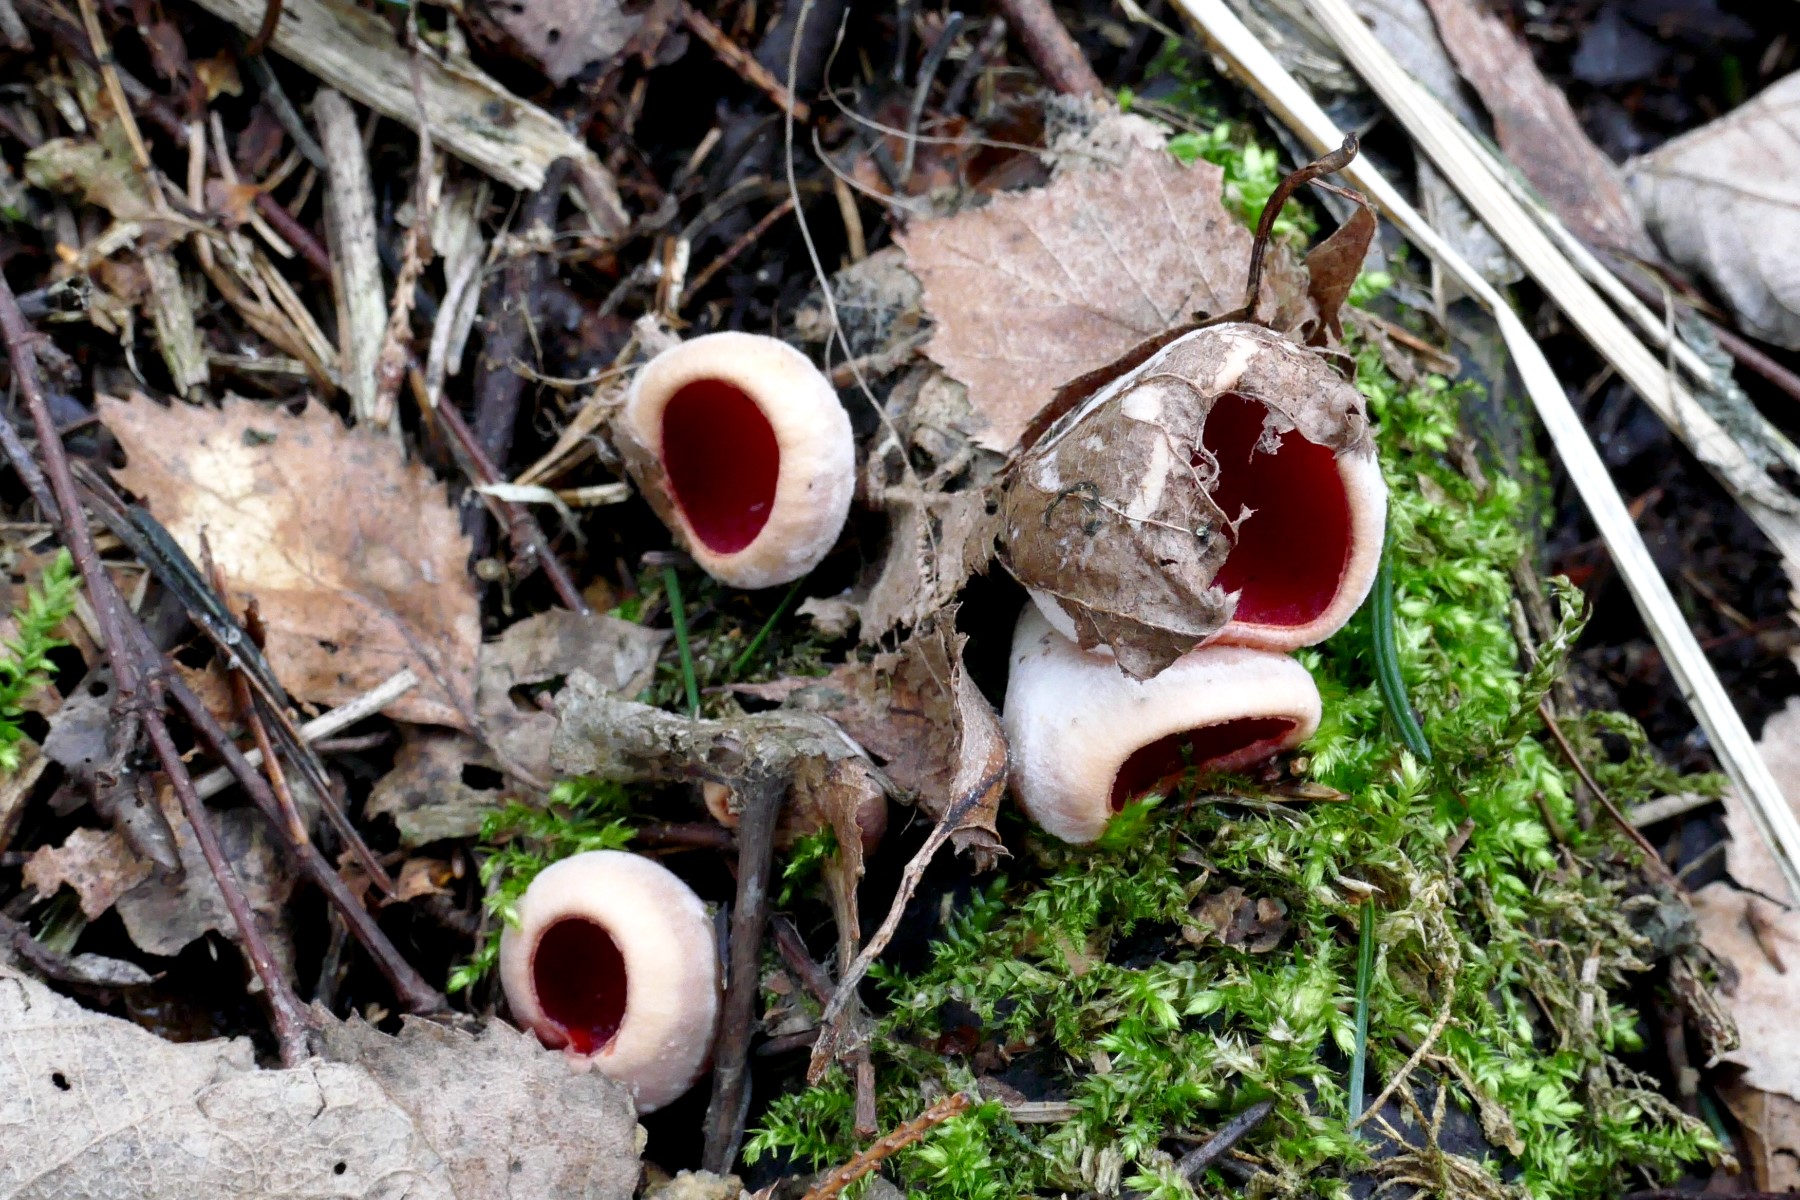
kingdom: Fungi
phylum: Ascomycota
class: Pezizomycetes
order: Pezizales
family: Sarcoscyphaceae
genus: Sarcoscypha
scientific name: Sarcoscypha austriaca
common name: krølhåret pragtbæger
